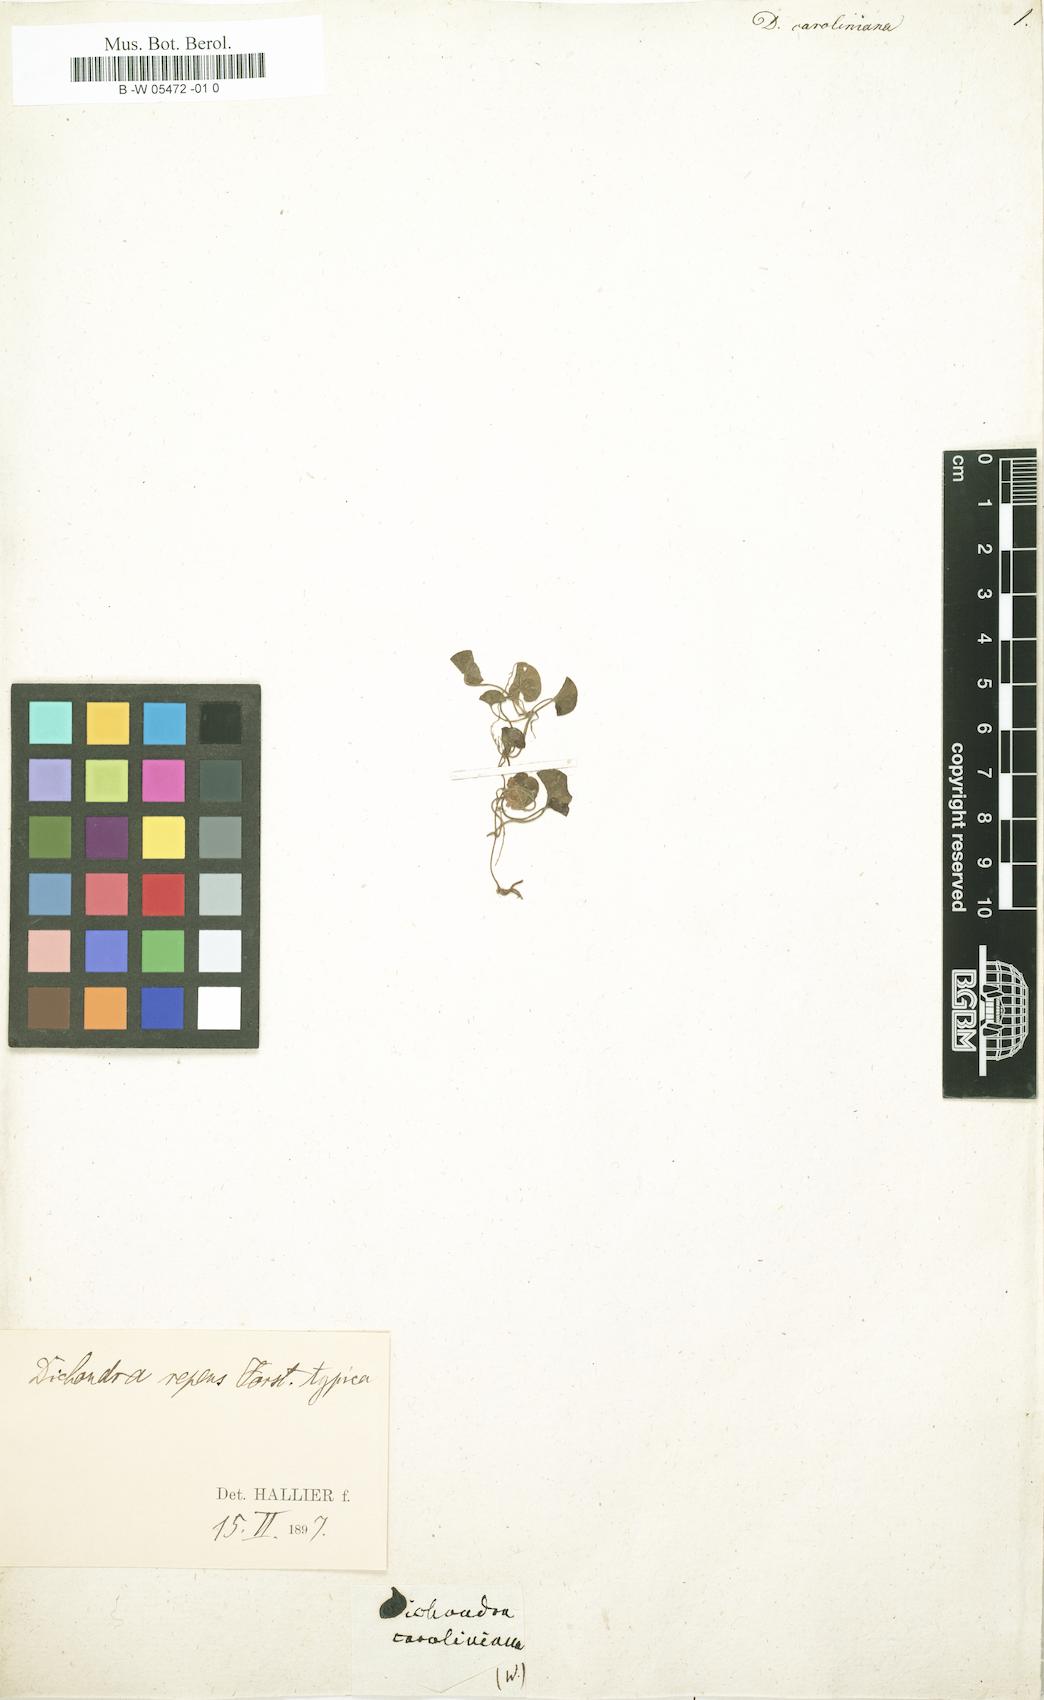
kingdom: Plantae
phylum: Tracheophyta
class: Magnoliopsida
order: Solanales
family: Convolvulaceae
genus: Dichondra
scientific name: Dichondra carolinensis
